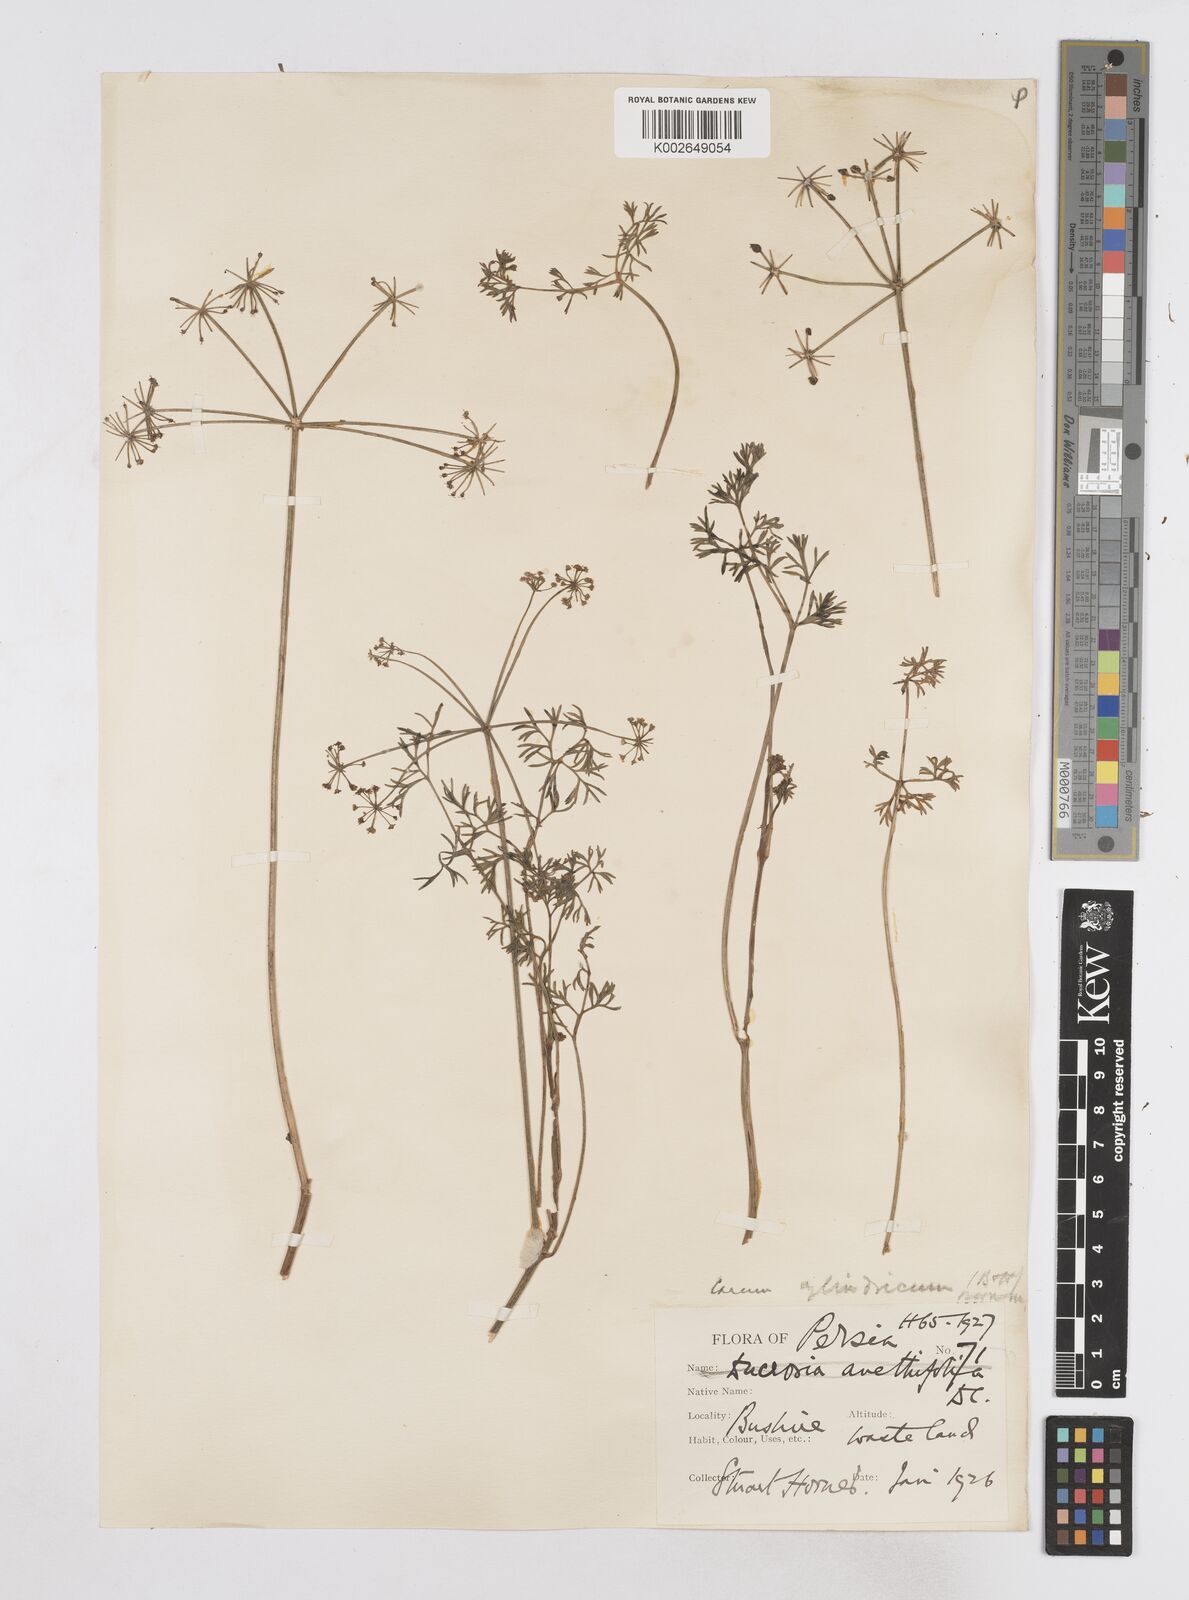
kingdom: Plantae
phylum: Tracheophyta
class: Magnoliopsida
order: Apiales
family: Apiaceae
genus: Elwendia
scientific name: Elwendia cylindrica
